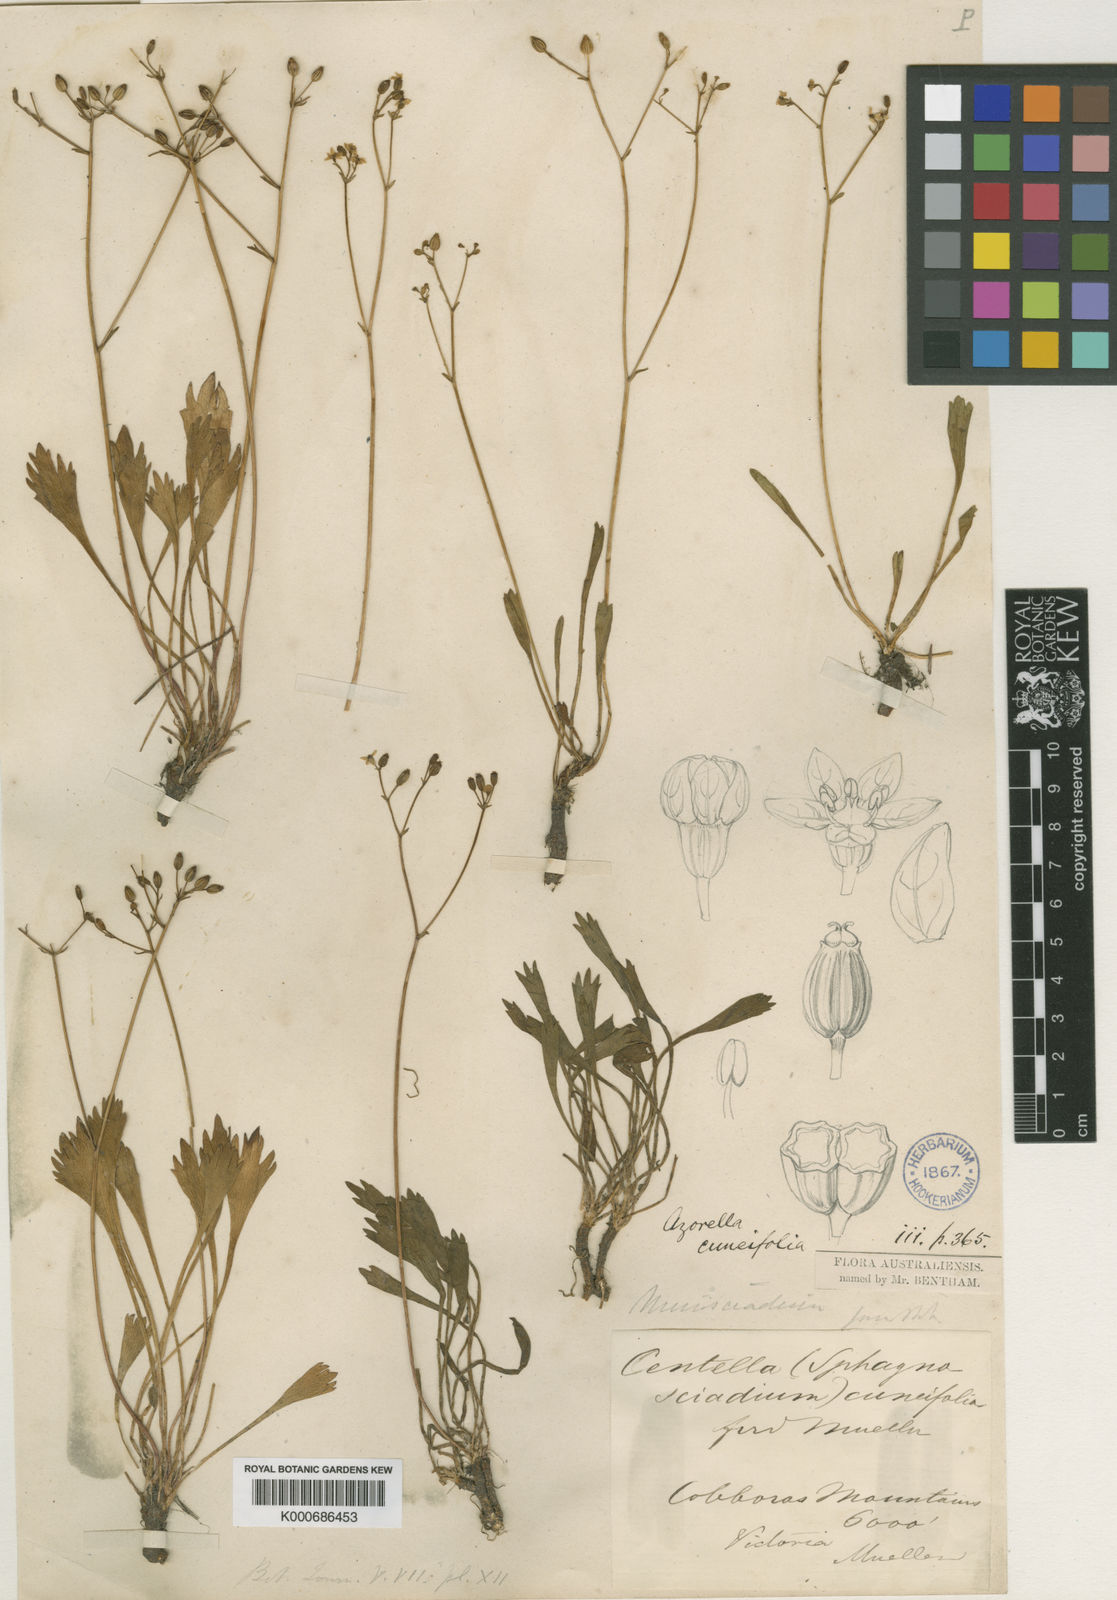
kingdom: Plantae
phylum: Tracheophyta
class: Magnoliopsida
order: Apiales
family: Apiaceae
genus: Oschatzia
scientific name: Oschatzia cuneifolia
